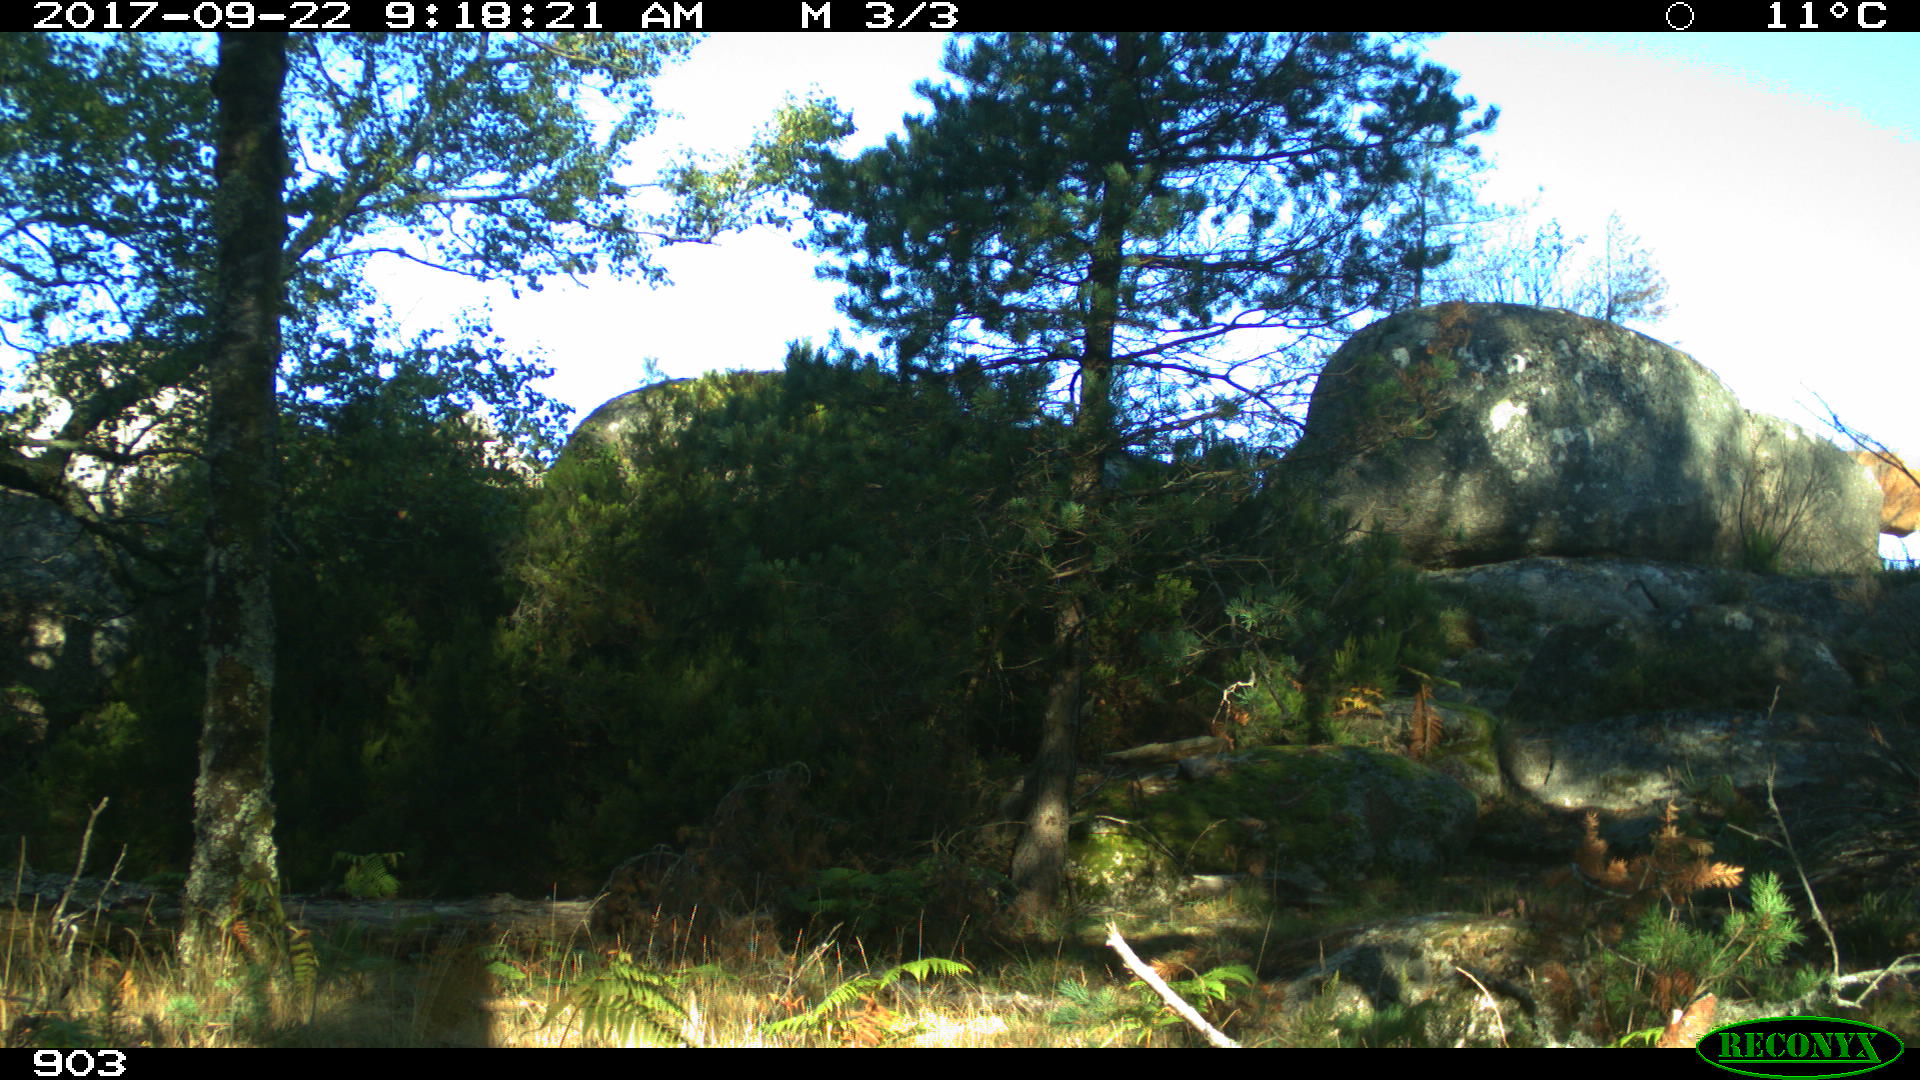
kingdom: Animalia
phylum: Chordata
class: Mammalia
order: Artiodactyla
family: Bovidae
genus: Bos
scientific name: Bos taurus
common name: Domesticated cattle
